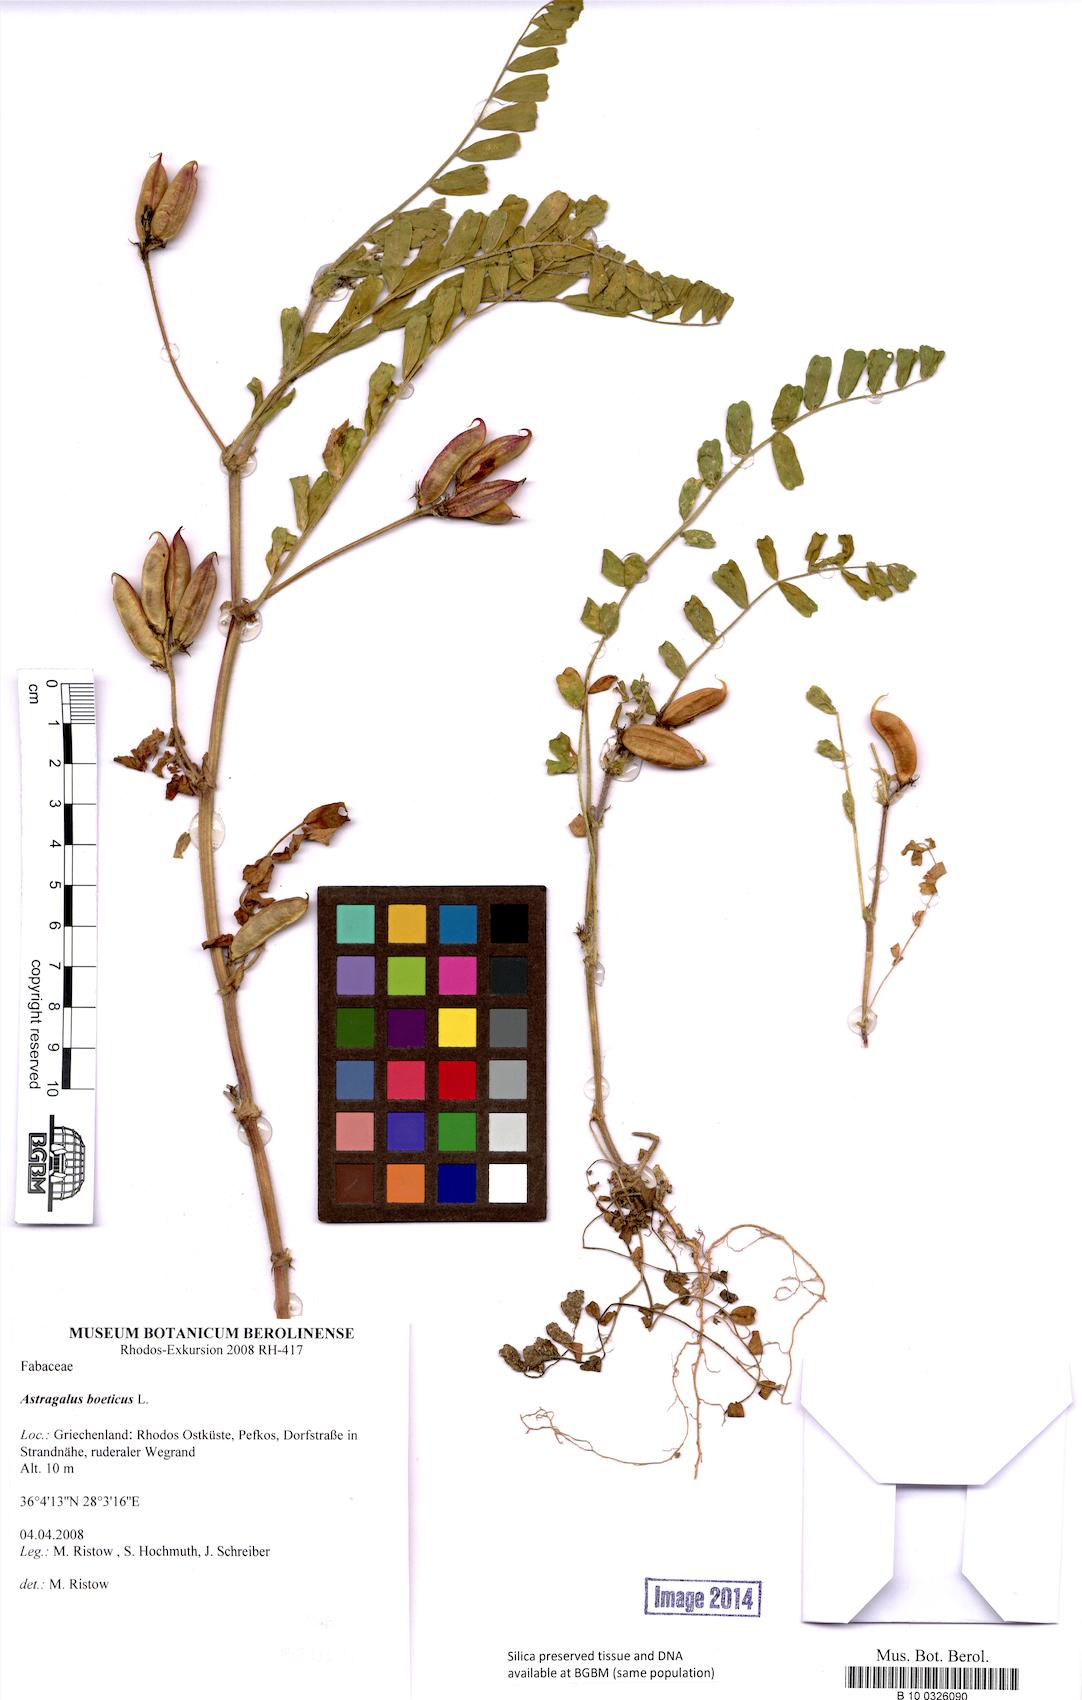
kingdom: Plantae
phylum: Tracheophyta
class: Magnoliopsida
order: Fabales
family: Fabaceae
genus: Astragalus
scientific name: Astragalus boeticus
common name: Milk-vetch
